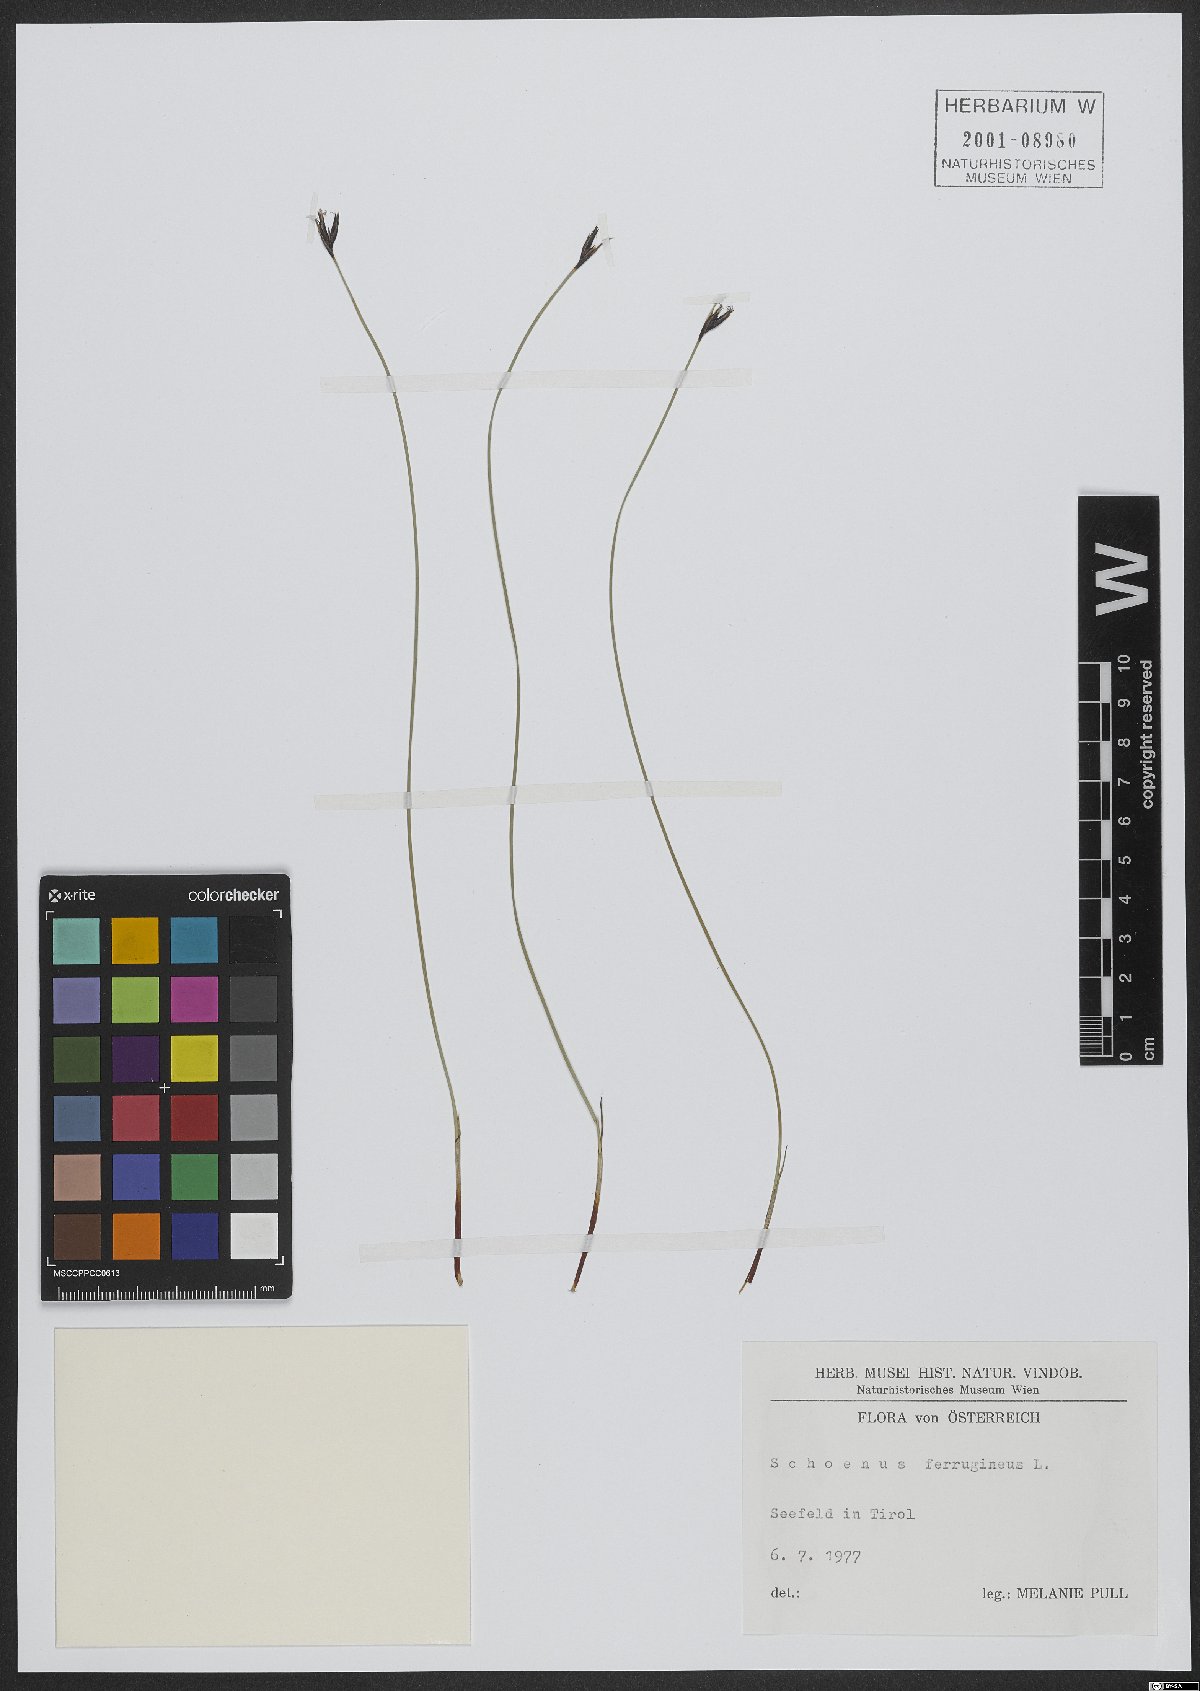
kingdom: Plantae
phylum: Tracheophyta
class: Liliopsida
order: Poales
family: Cyperaceae
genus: Schoenus
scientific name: Schoenus ferrugineus
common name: Brown bog-rush
